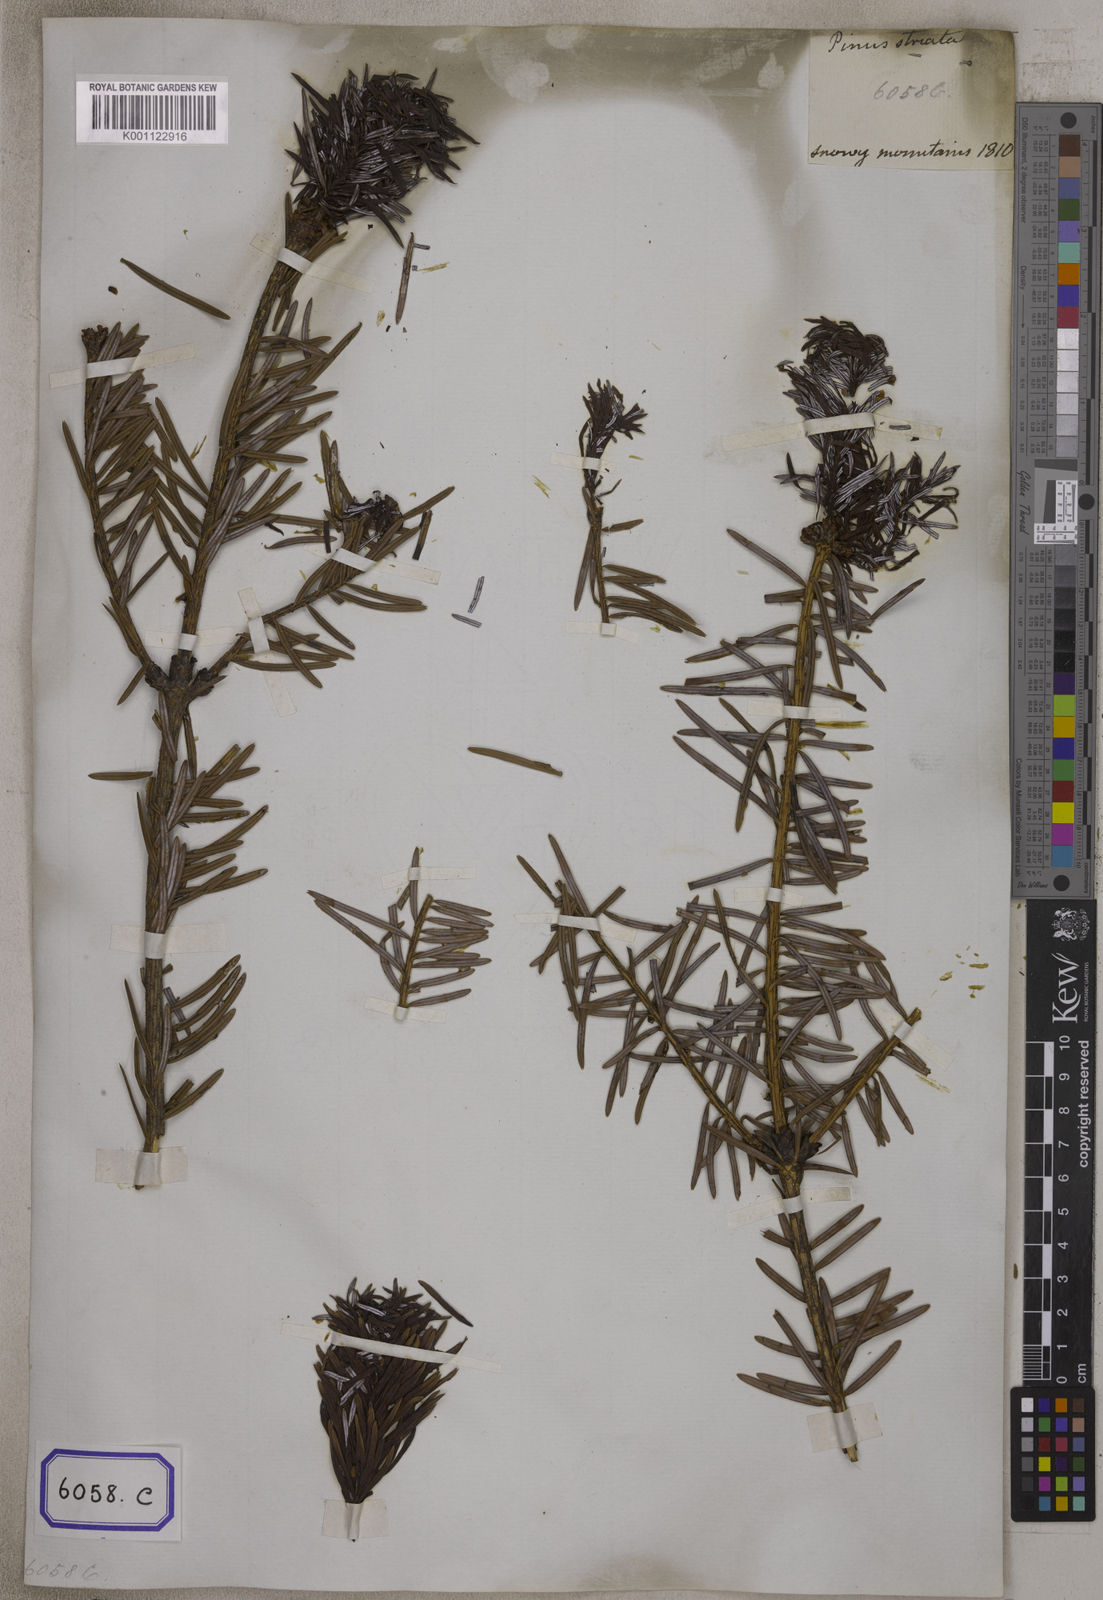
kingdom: Plantae
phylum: Tracheophyta
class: Pinopsida
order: Pinales
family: Pinaceae
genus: Pinus
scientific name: Pinus
